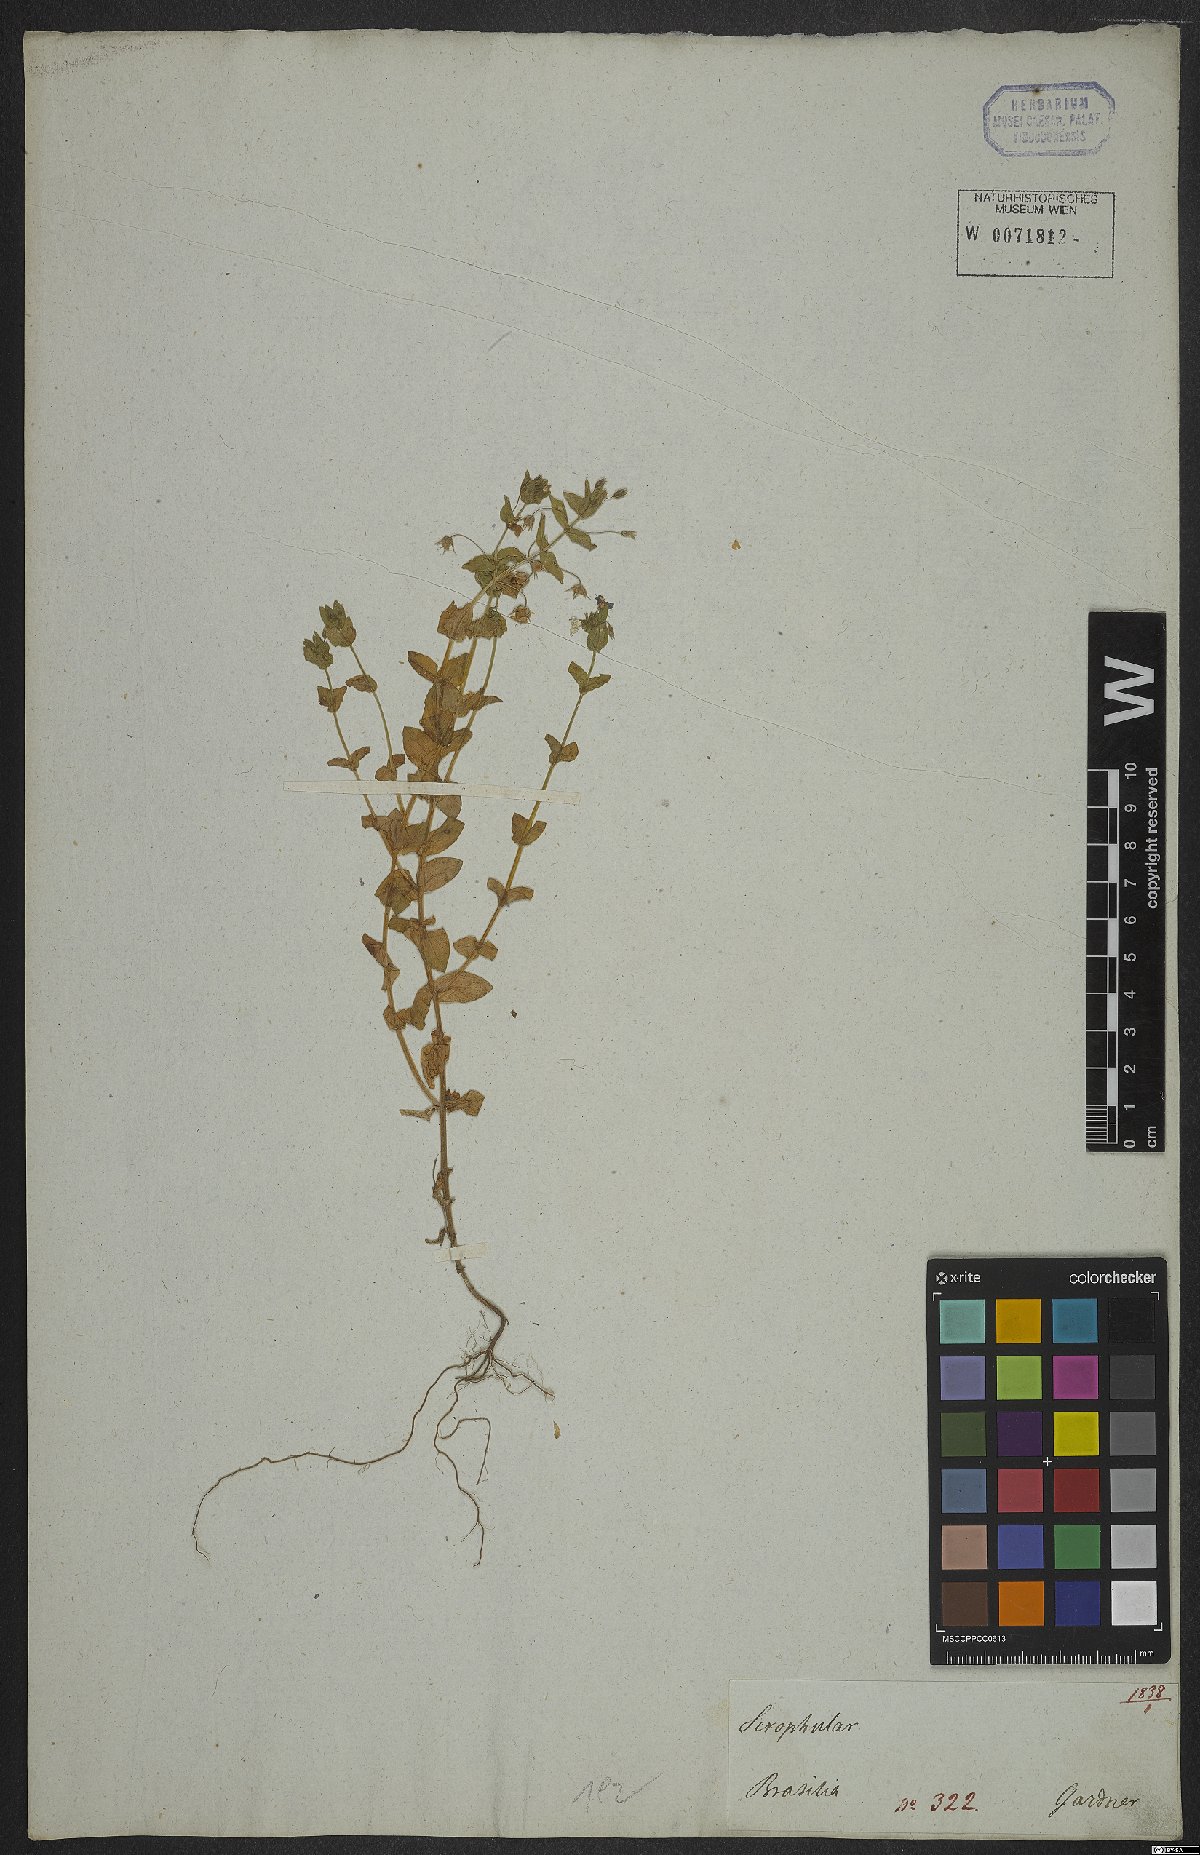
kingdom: Plantae
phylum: Tracheophyta
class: Magnoliopsida
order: Ericales
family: Primulaceae
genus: Lysimachia
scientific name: Lysimachia arvensis
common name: Scarlet pimpernel
